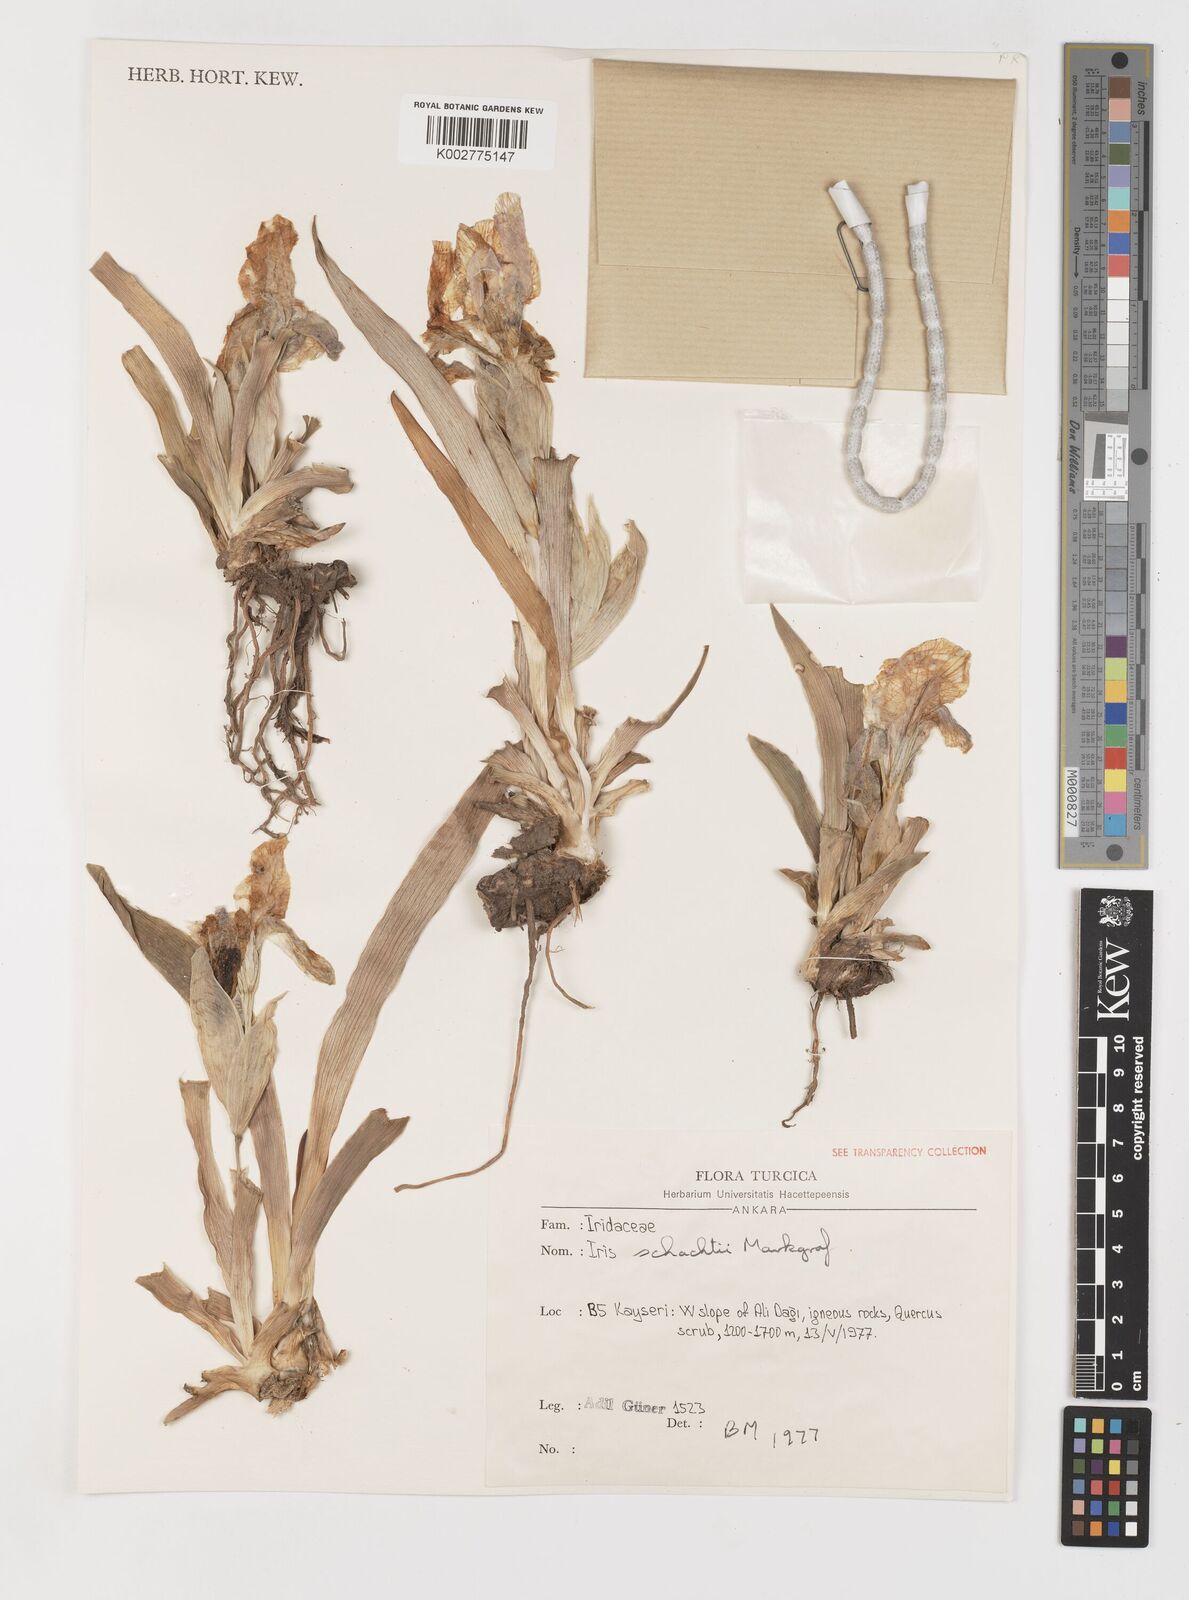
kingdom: Plantae
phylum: Tracheophyta
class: Liliopsida
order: Asparagales
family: Iridaceae
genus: Iris
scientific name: Iris schachtii
